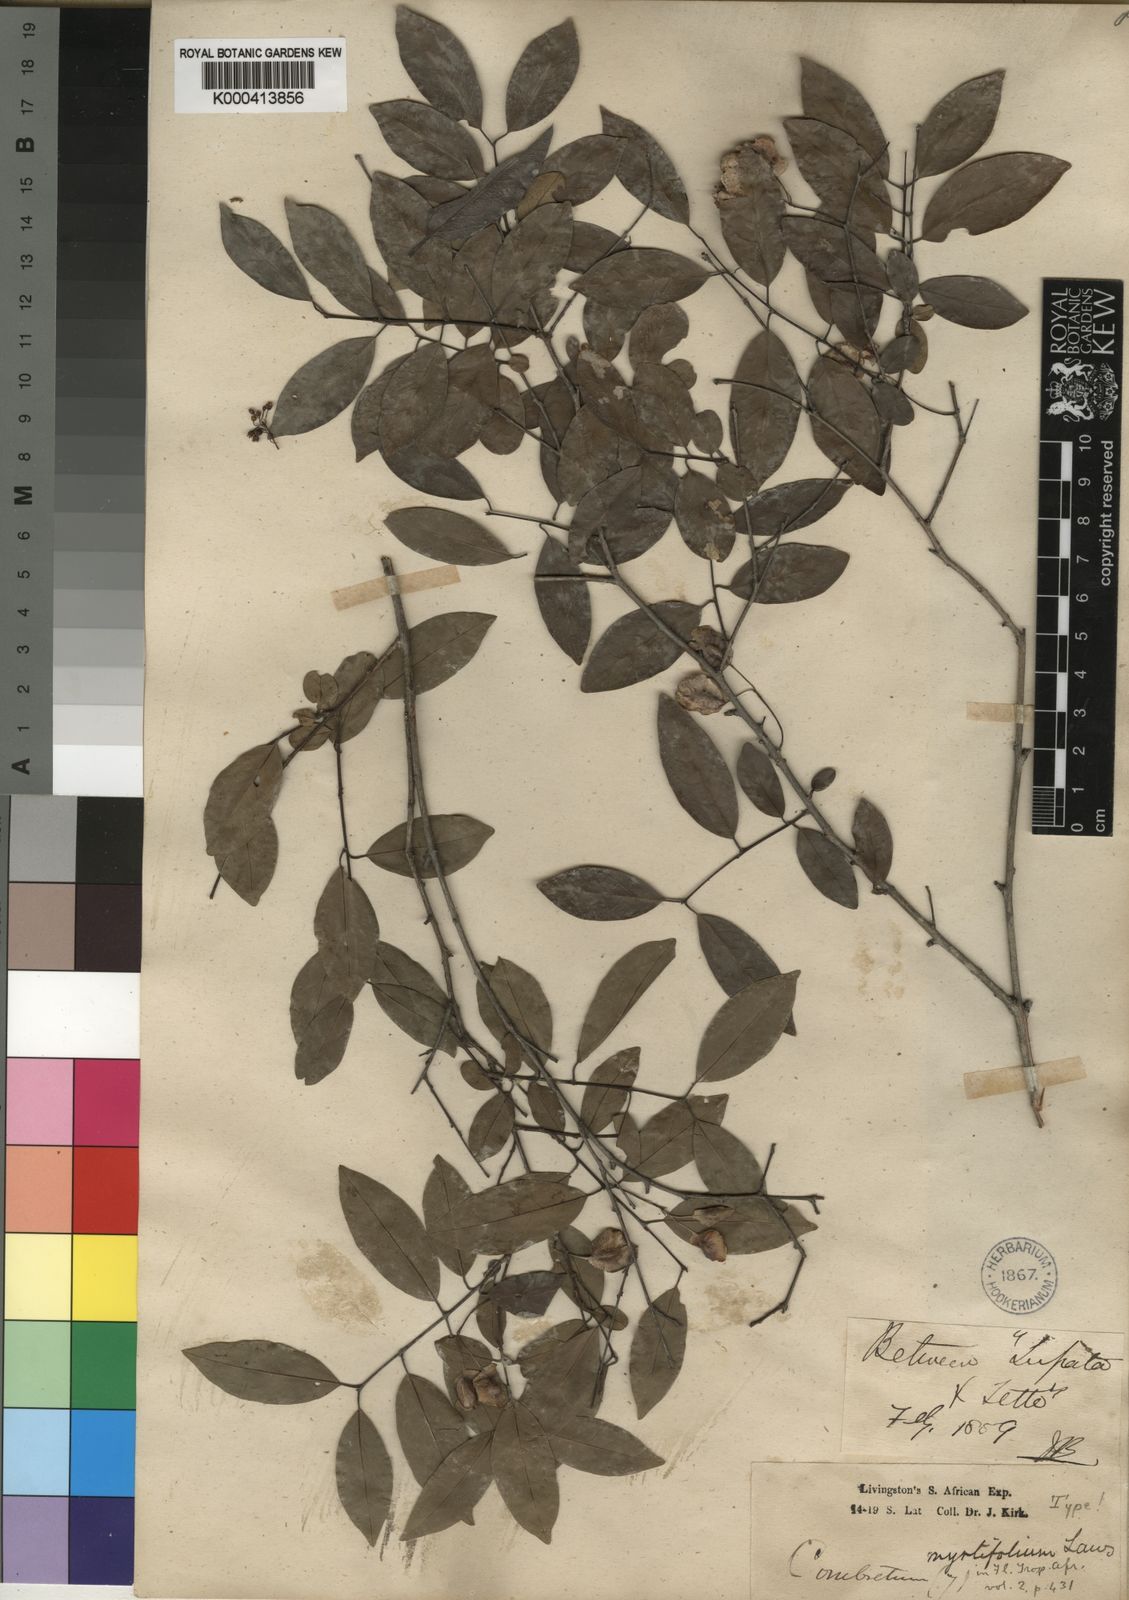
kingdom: Plantae
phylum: Tracheophyta
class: Magnoliopsida
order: Myrtales
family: Combretaceae
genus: Terminalia
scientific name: Terminalia myrtifolia
